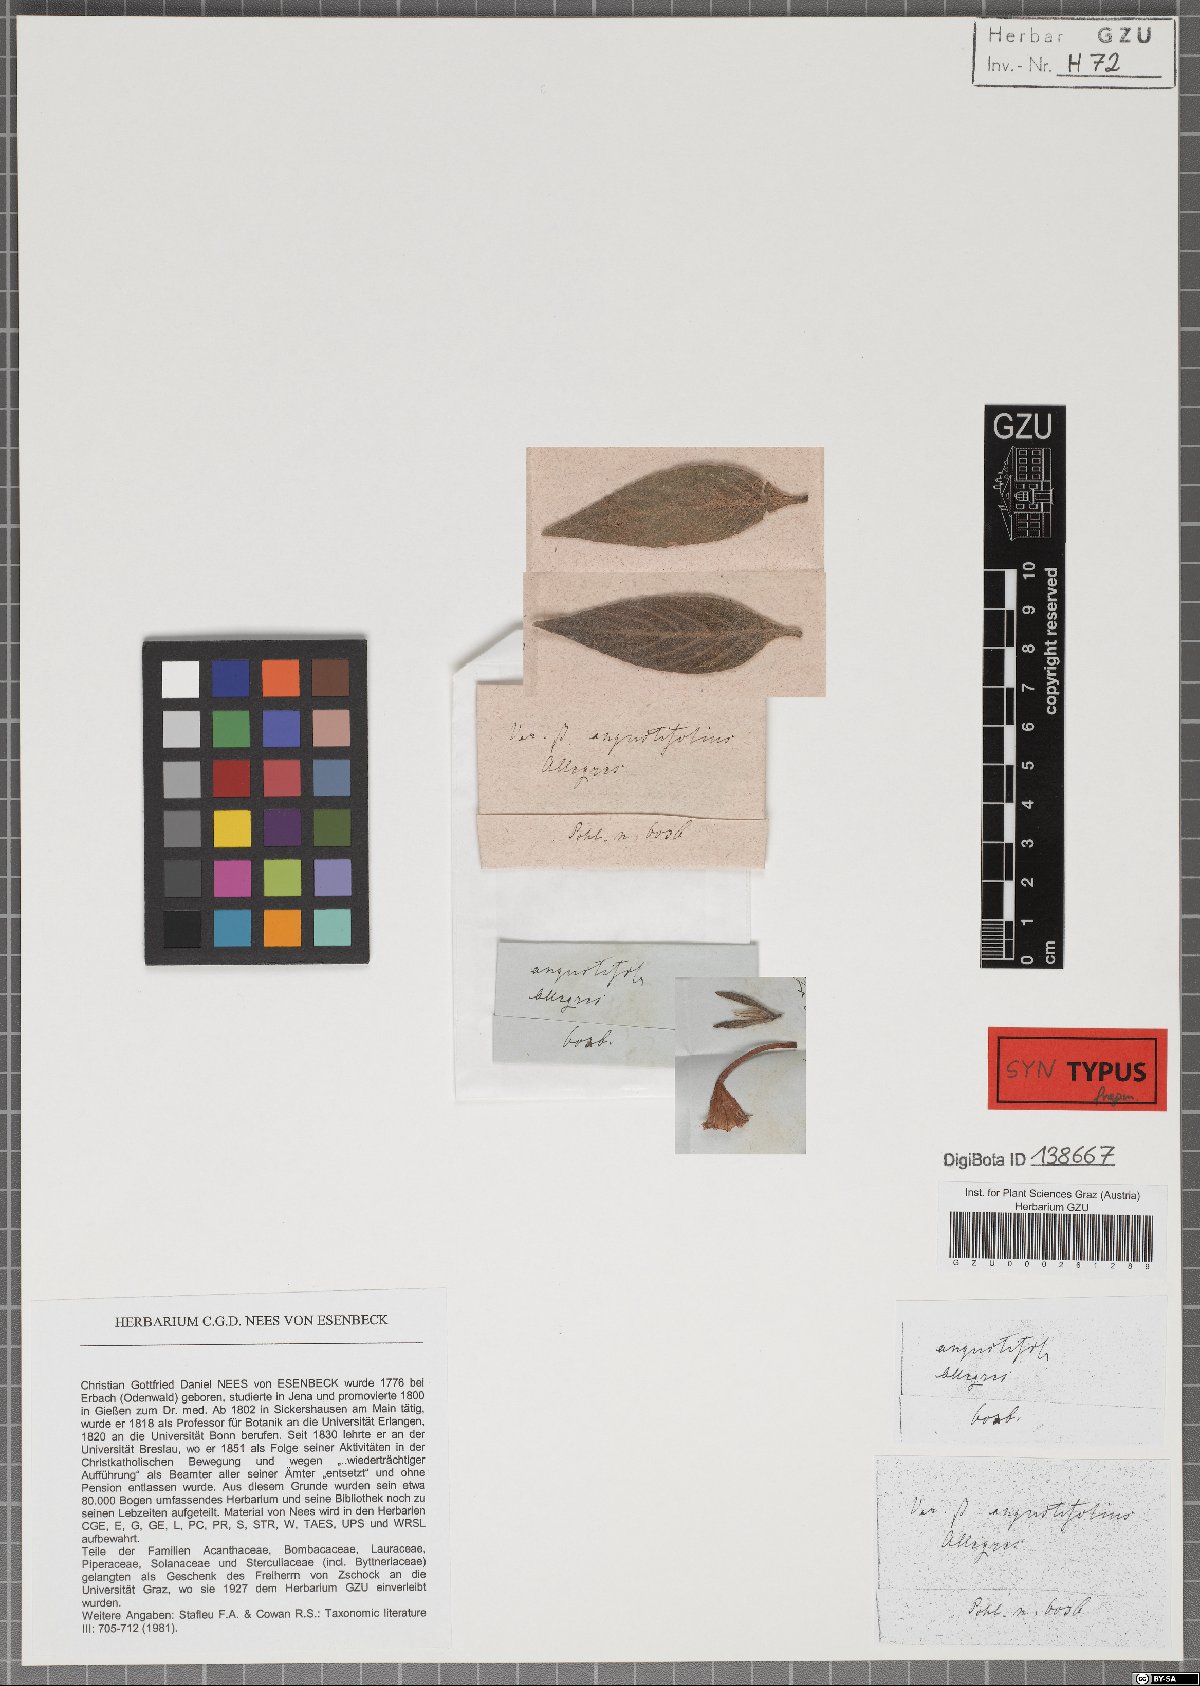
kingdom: Plantae
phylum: Tracheophyta
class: Magnoliopsida
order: Lamiales
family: Acanthaceae
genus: Ruellia
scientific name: Ruellia jussieuoides
